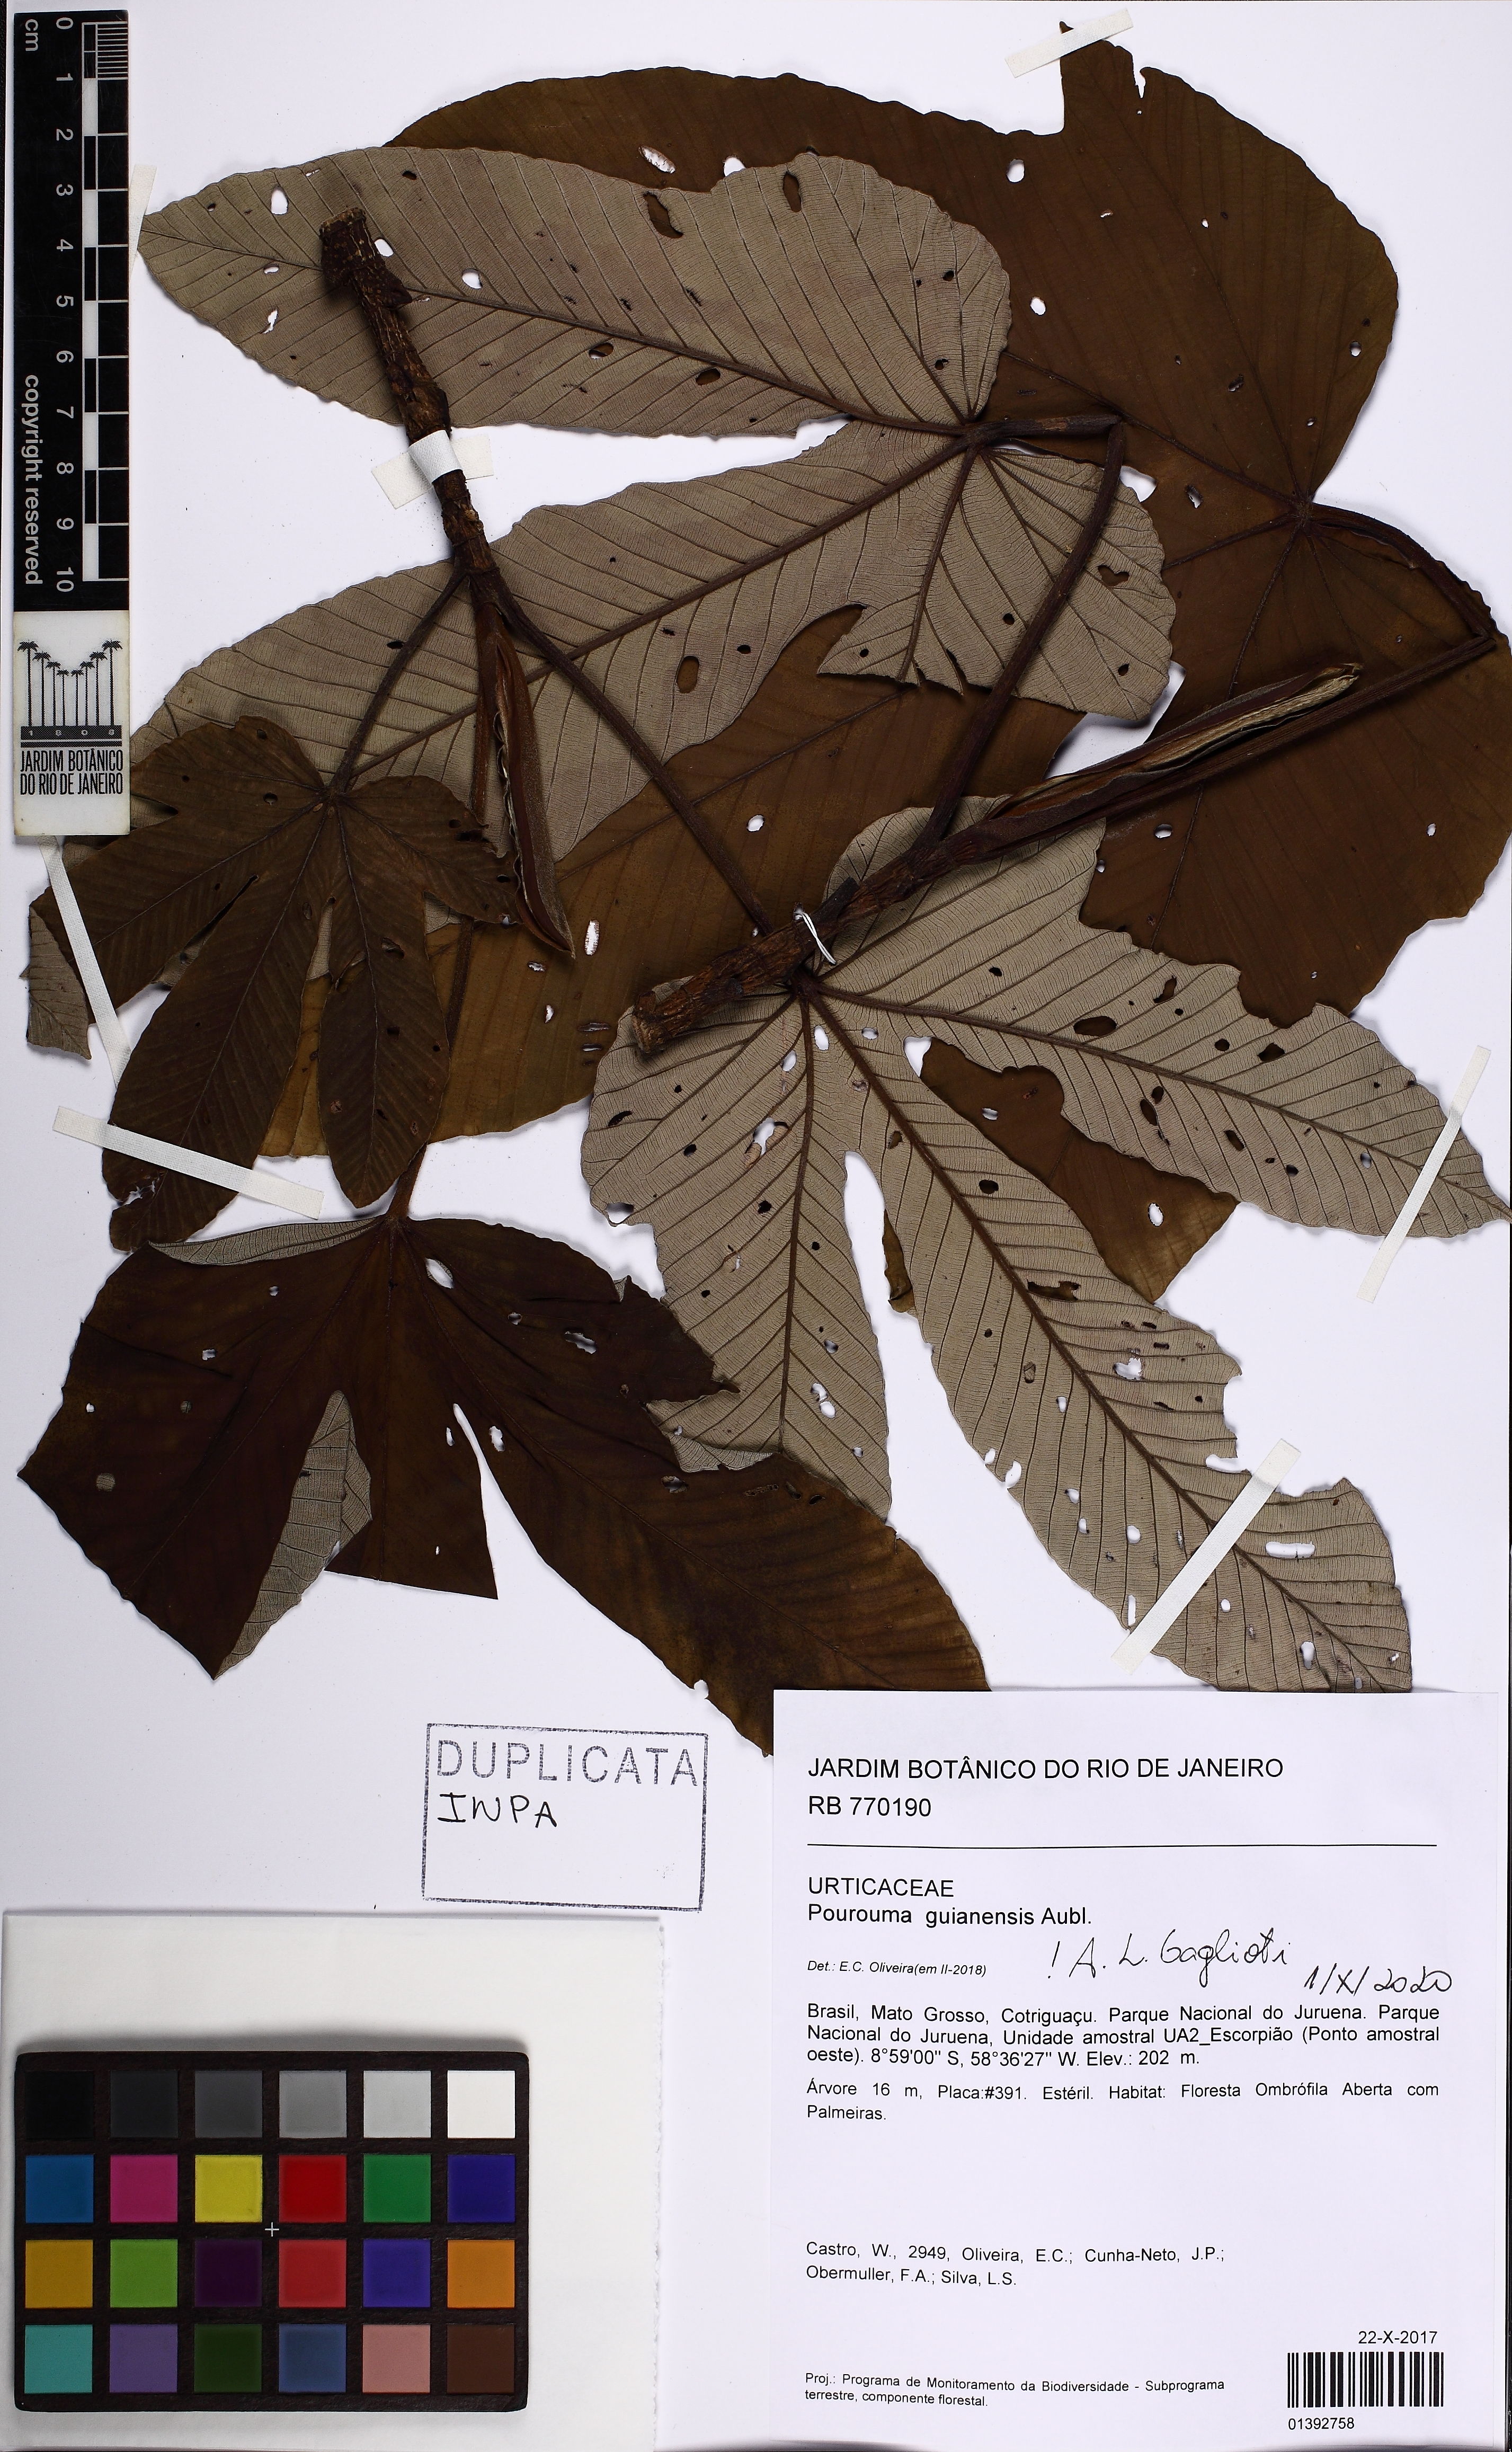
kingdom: Plantae
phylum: Tracheophyta
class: Magnoliopsida
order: Rosales
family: Urticaceae
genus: Pourouma
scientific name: Pourouma guianensis
